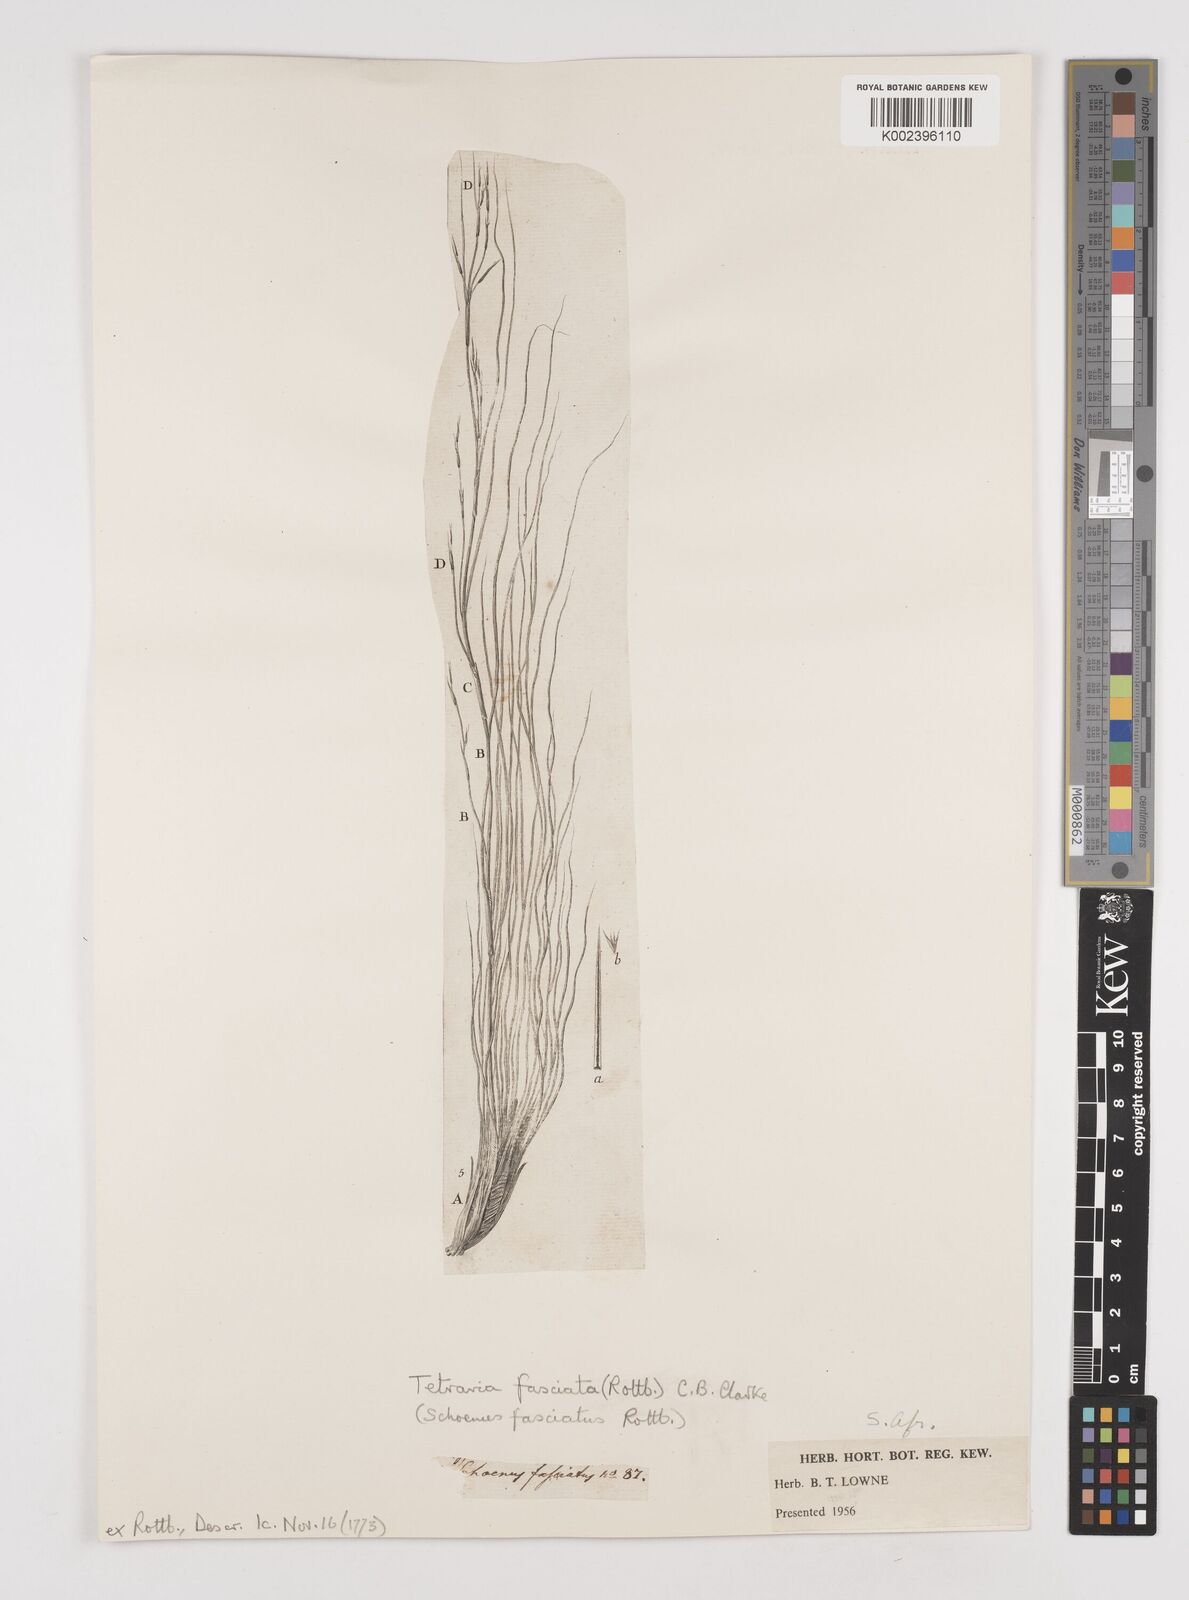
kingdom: Plantae
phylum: Tracheophyta
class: Liliopsida
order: Poales
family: Cyperaceae
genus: Tetraria
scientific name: Tetraria fasciata
